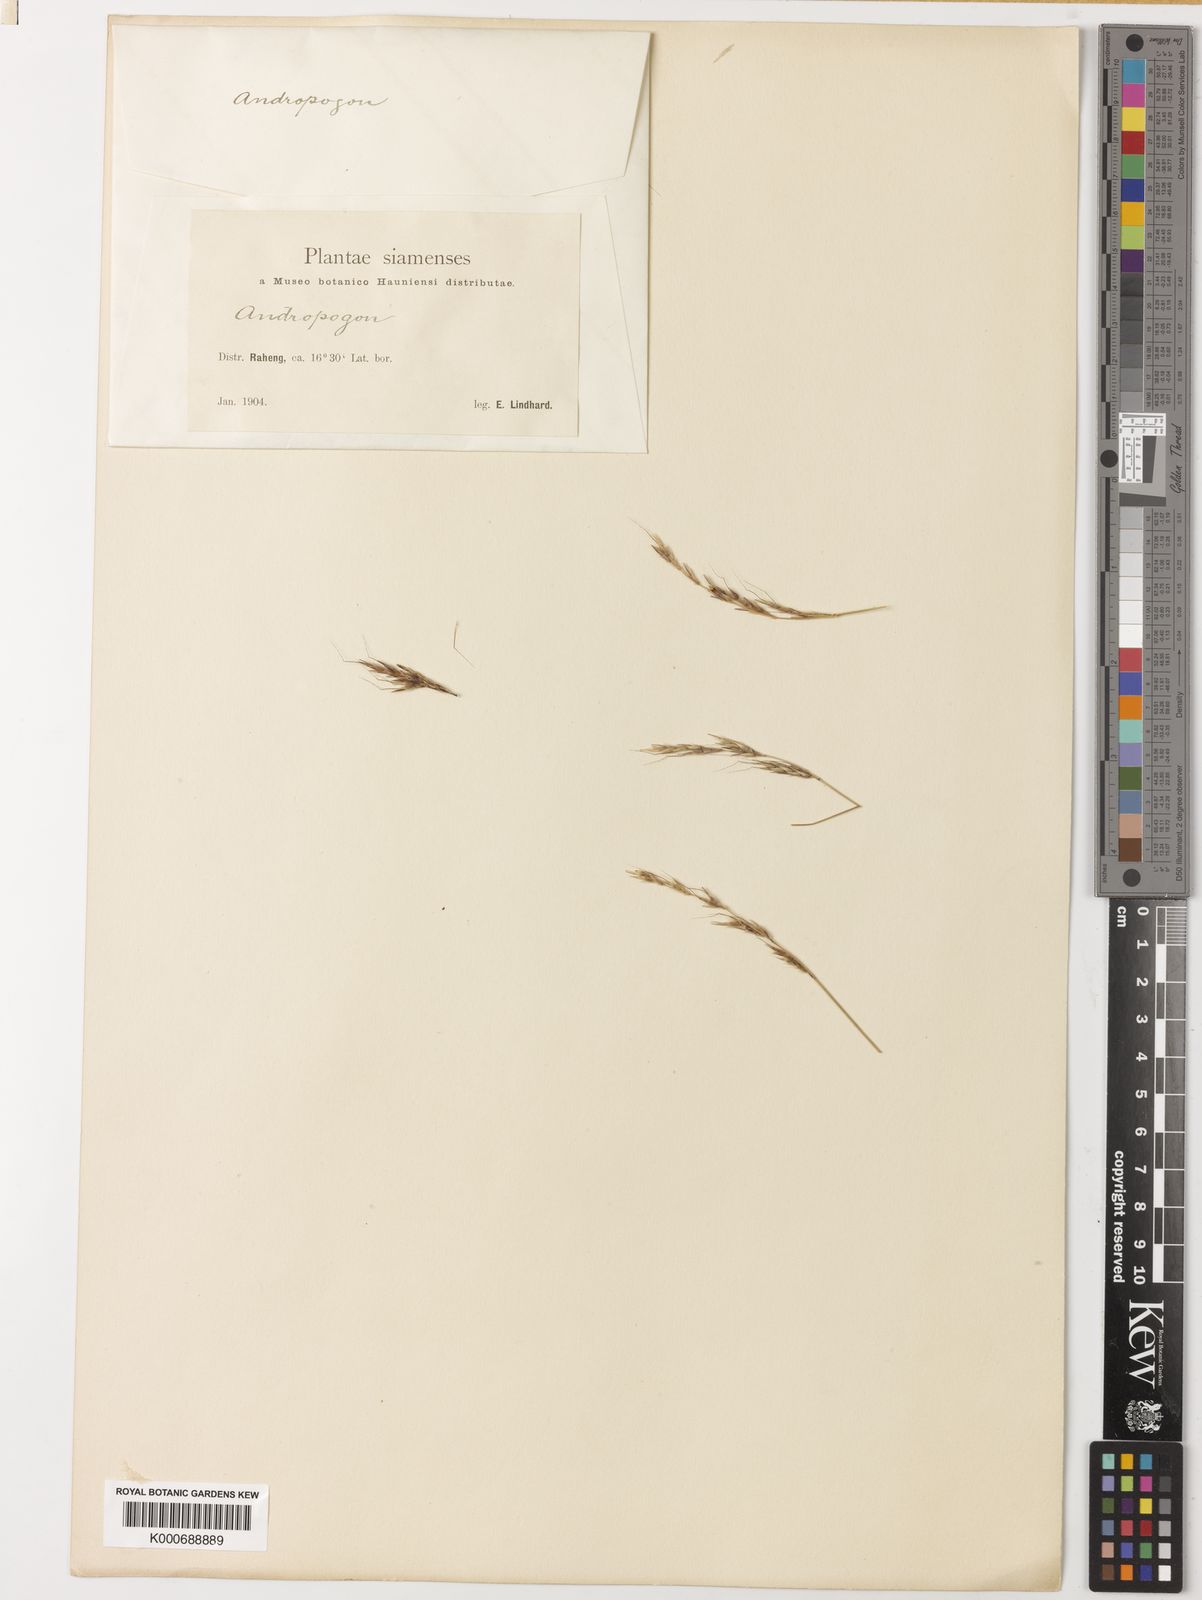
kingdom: Plantae
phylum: Tracheophyta
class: Liliopsida
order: Poales
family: Poaceae
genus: Heteropogon
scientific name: Heteropogon contortus
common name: Tanglehead
